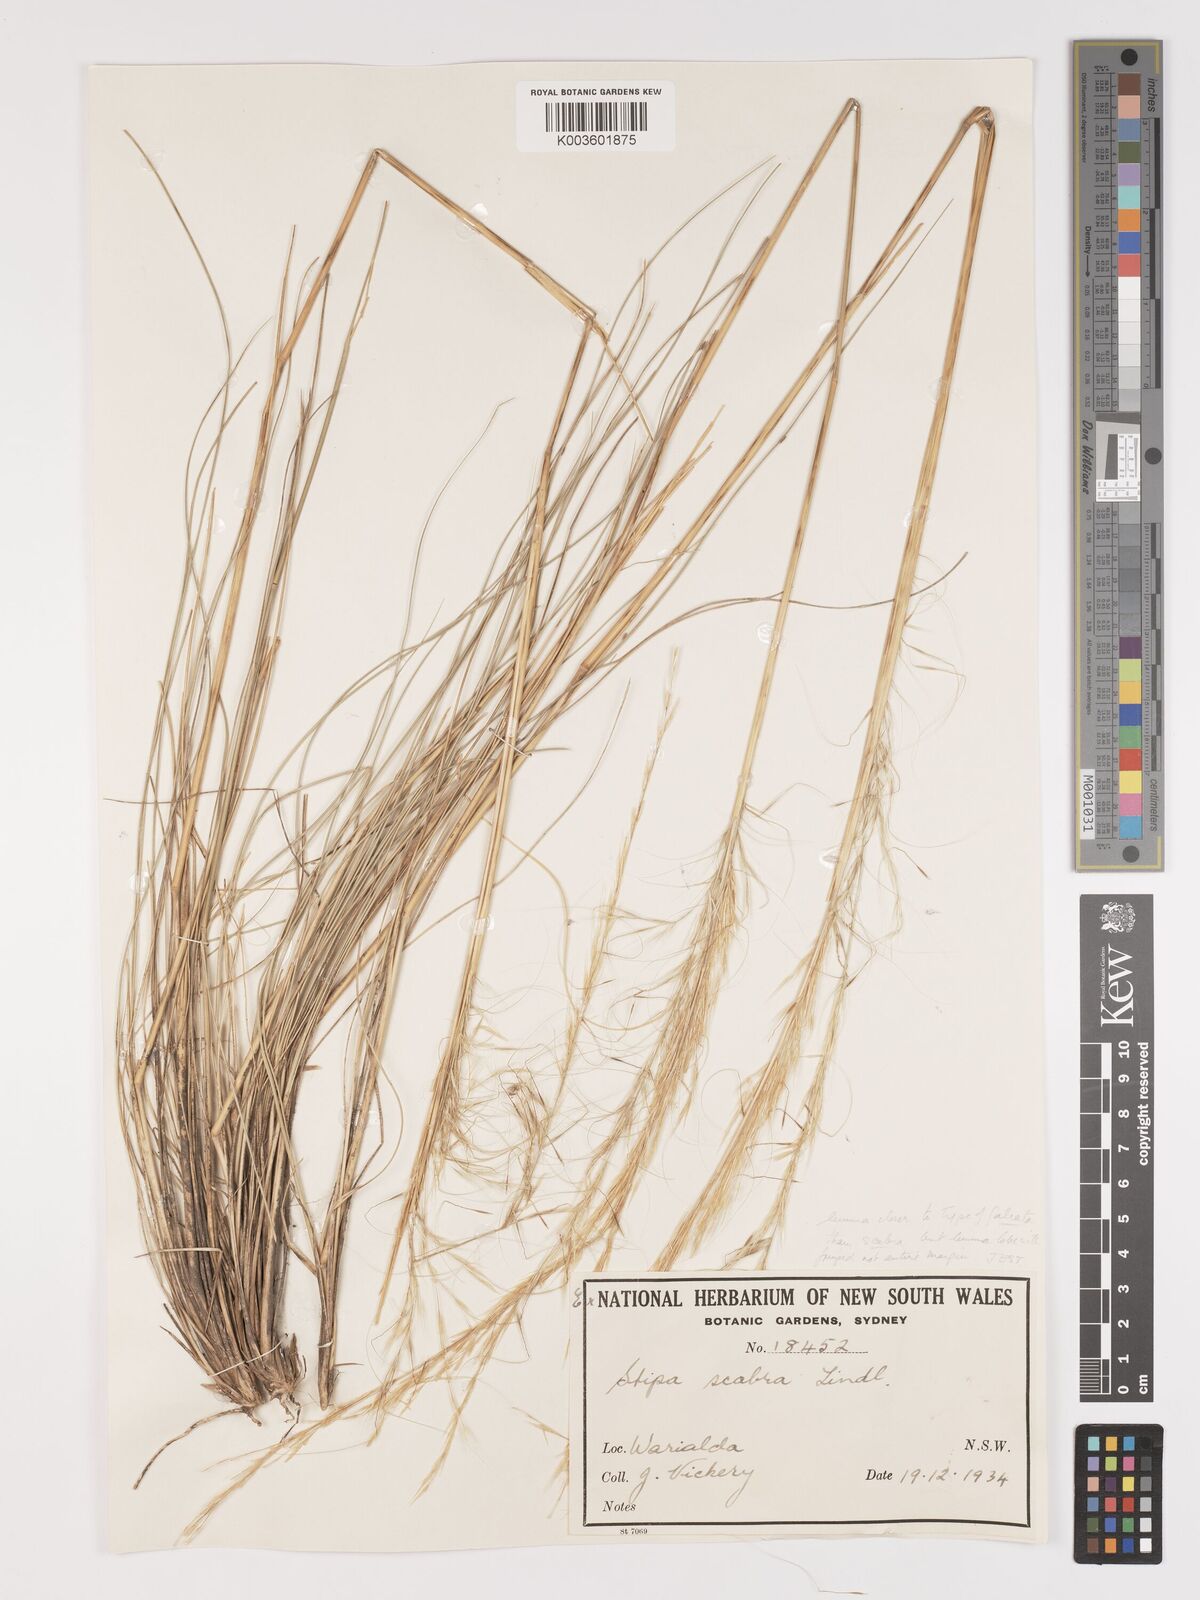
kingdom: Plantae
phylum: Tracheophyta
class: Liliopsida
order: Poales
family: Poaceae
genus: Austrostipa
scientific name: Austrostipa nitida
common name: Balcarra grass
